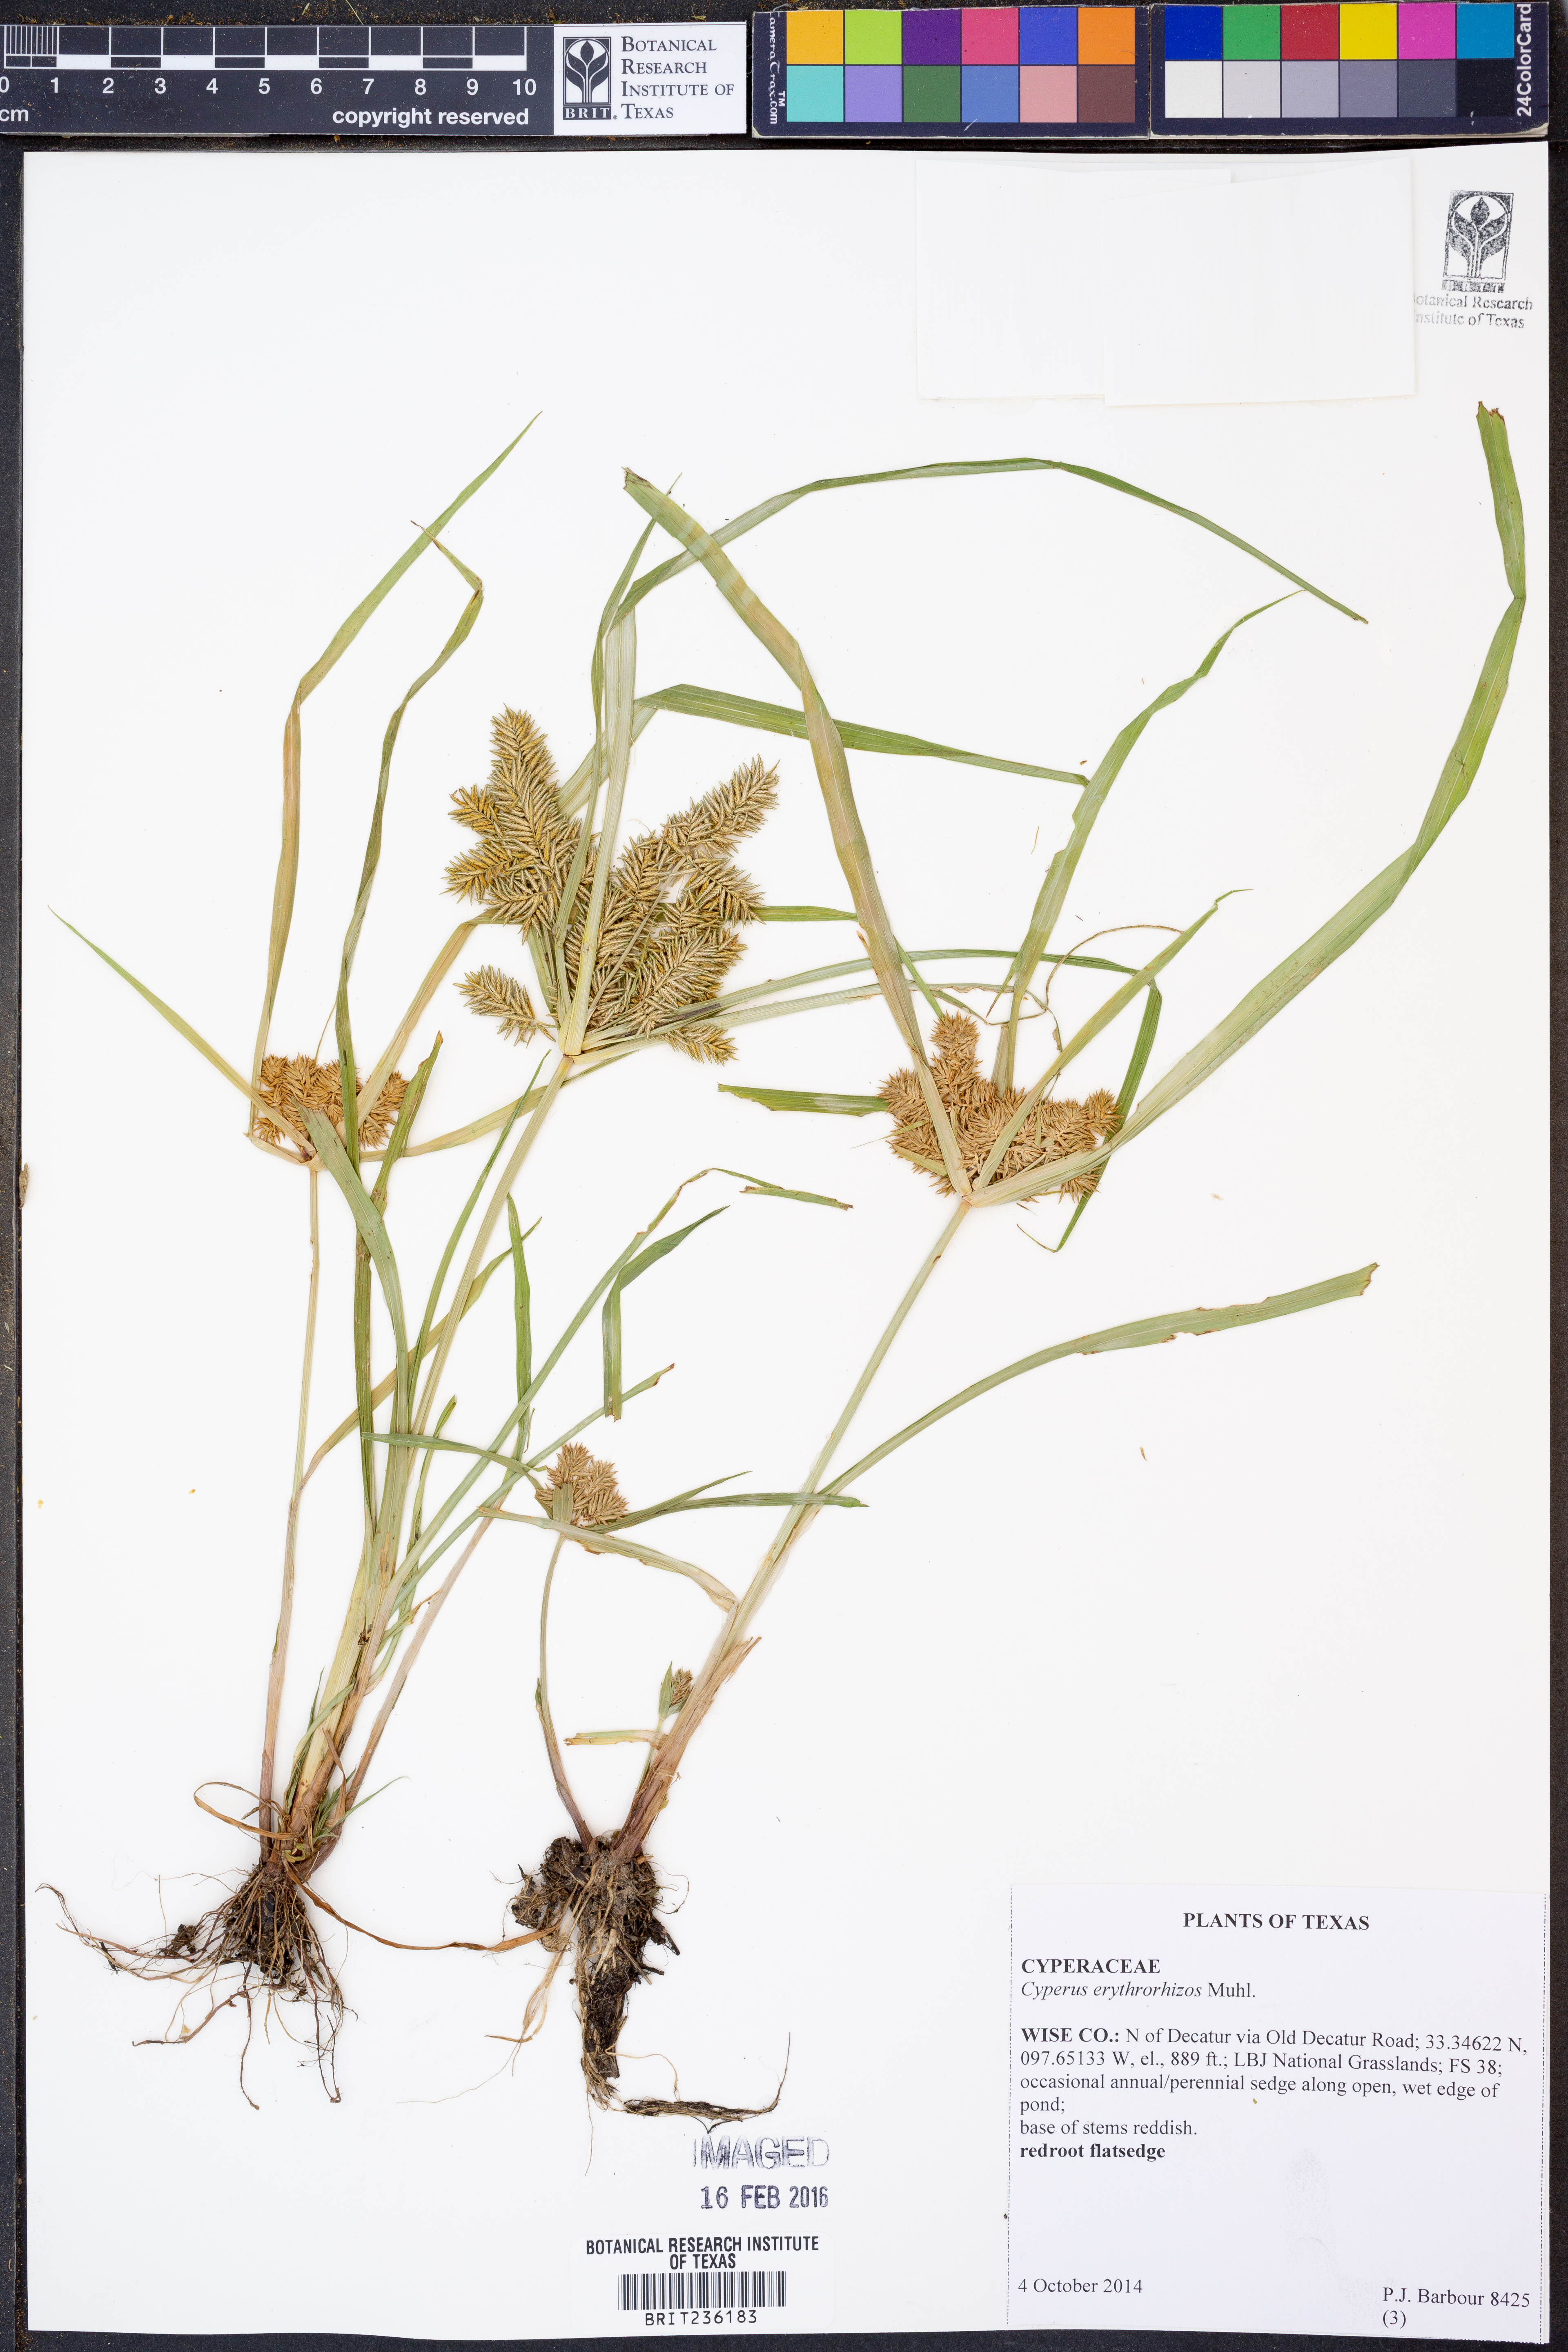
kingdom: Plantae
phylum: Tracheophyta
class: Liliopsida
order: Poales
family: Cyperaceae
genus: Cyperus
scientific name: Cyperus erythrorhizos
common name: Red-root flat sedge
